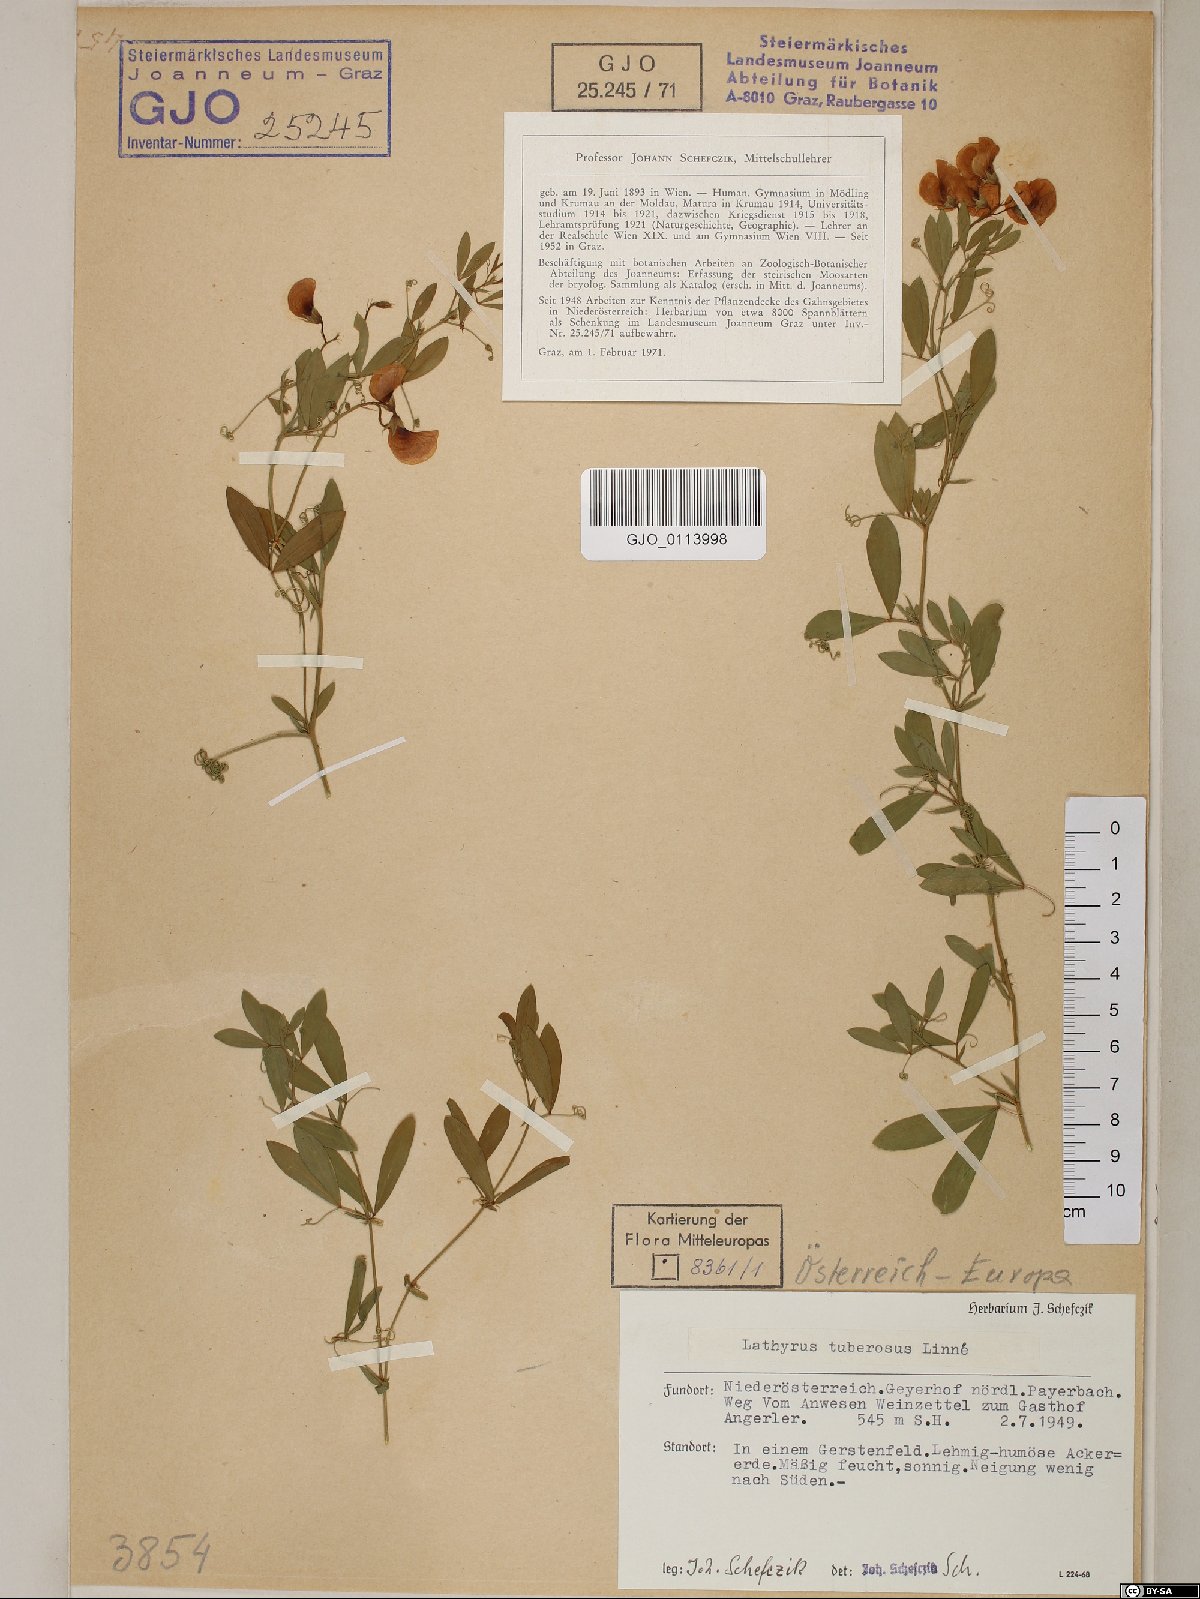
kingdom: Plantae
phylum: Tracheophyta
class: Magnoliopsida
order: Fabales
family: Fabaceae
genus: Lathyrus
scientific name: Lathyrus tuberosus
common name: Tuberous pea
